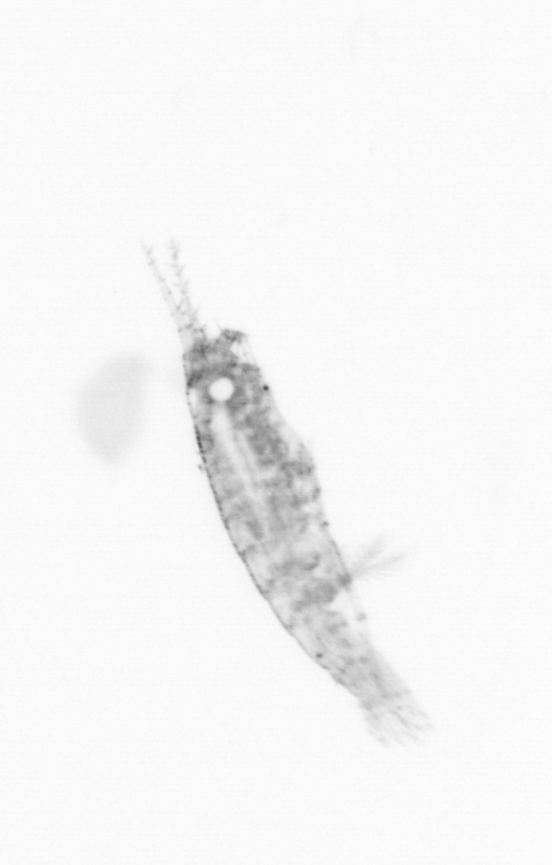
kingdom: Animalia
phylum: Arthropoda
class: Copepoda
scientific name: Copepoda
